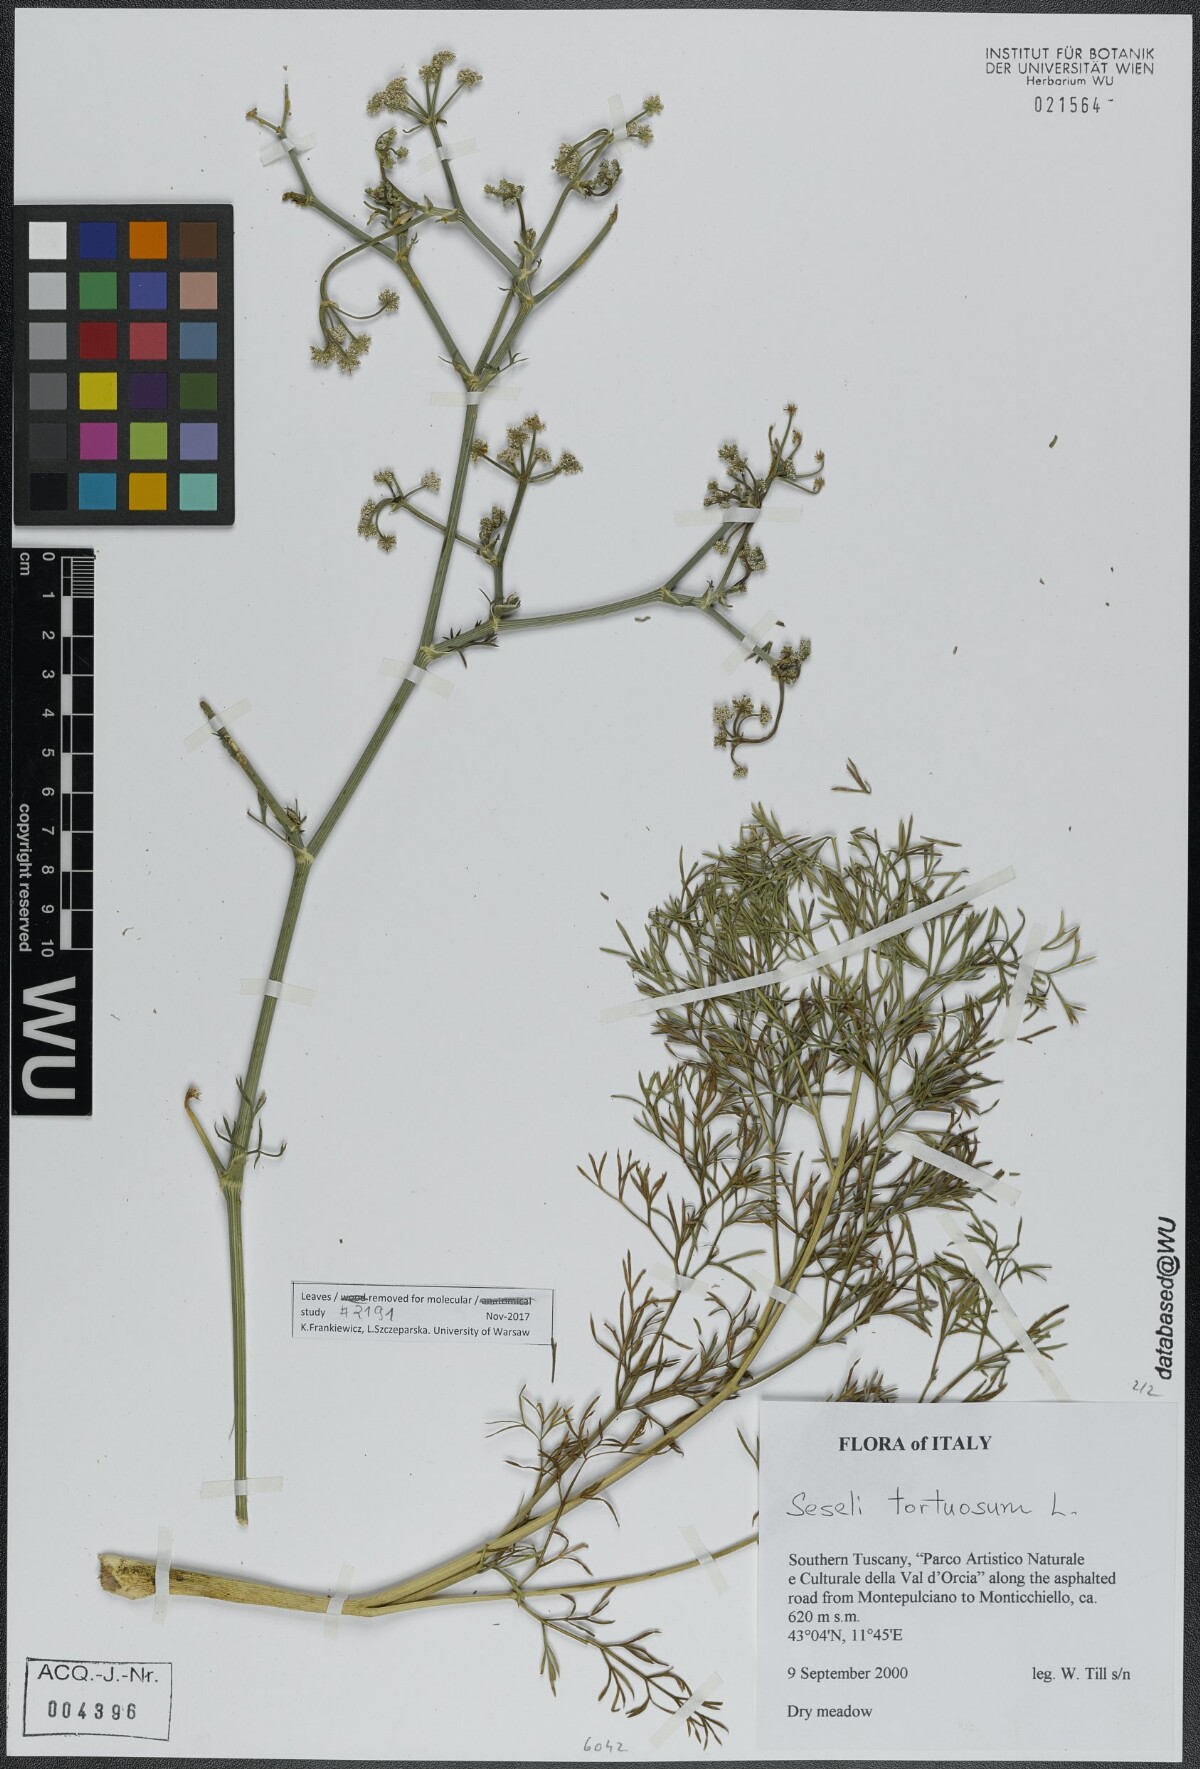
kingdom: Plantae
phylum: Tracheophyta
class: Magnoliopsida
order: Apiales
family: Apiaceae
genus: Seseli
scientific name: Seseli tortuosum
